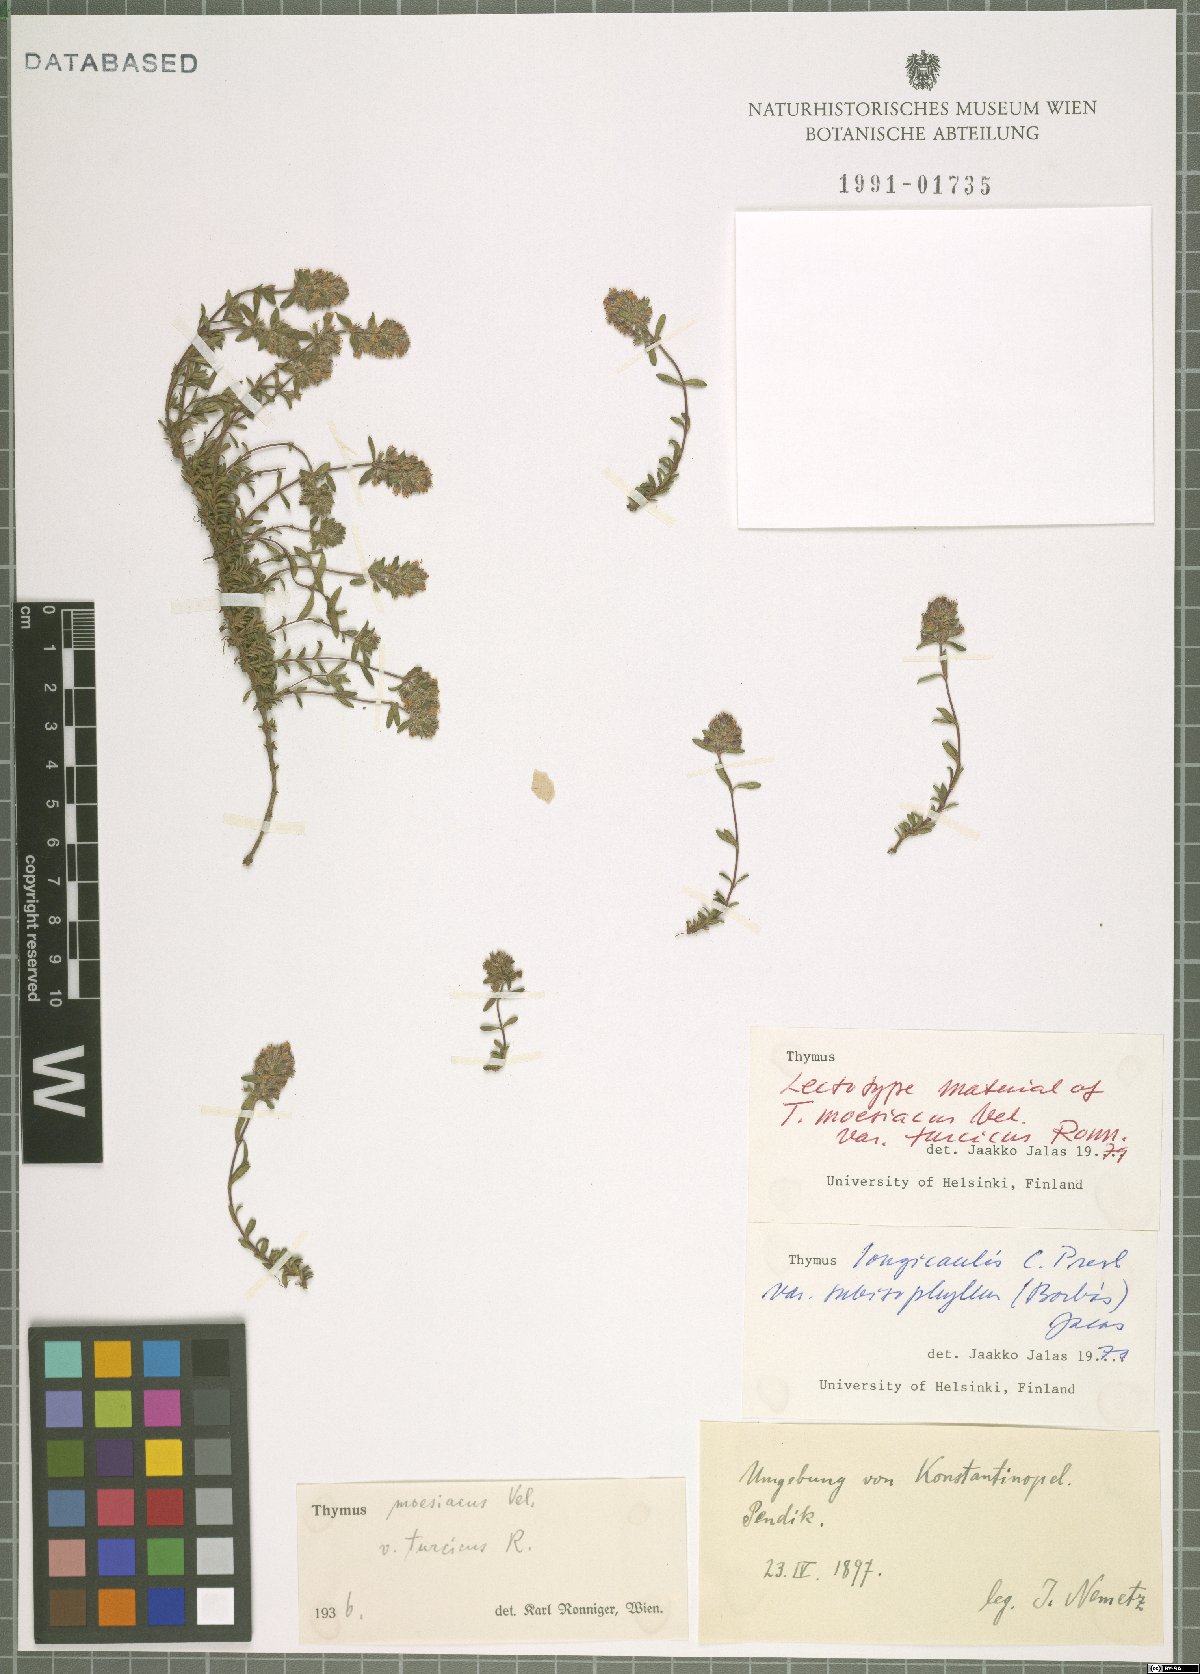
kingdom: Plantae
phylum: Tracheophyta
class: Magnoliopsida
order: Lamiales
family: Lamiaceae
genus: Thymus
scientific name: Thymus longicaulis
